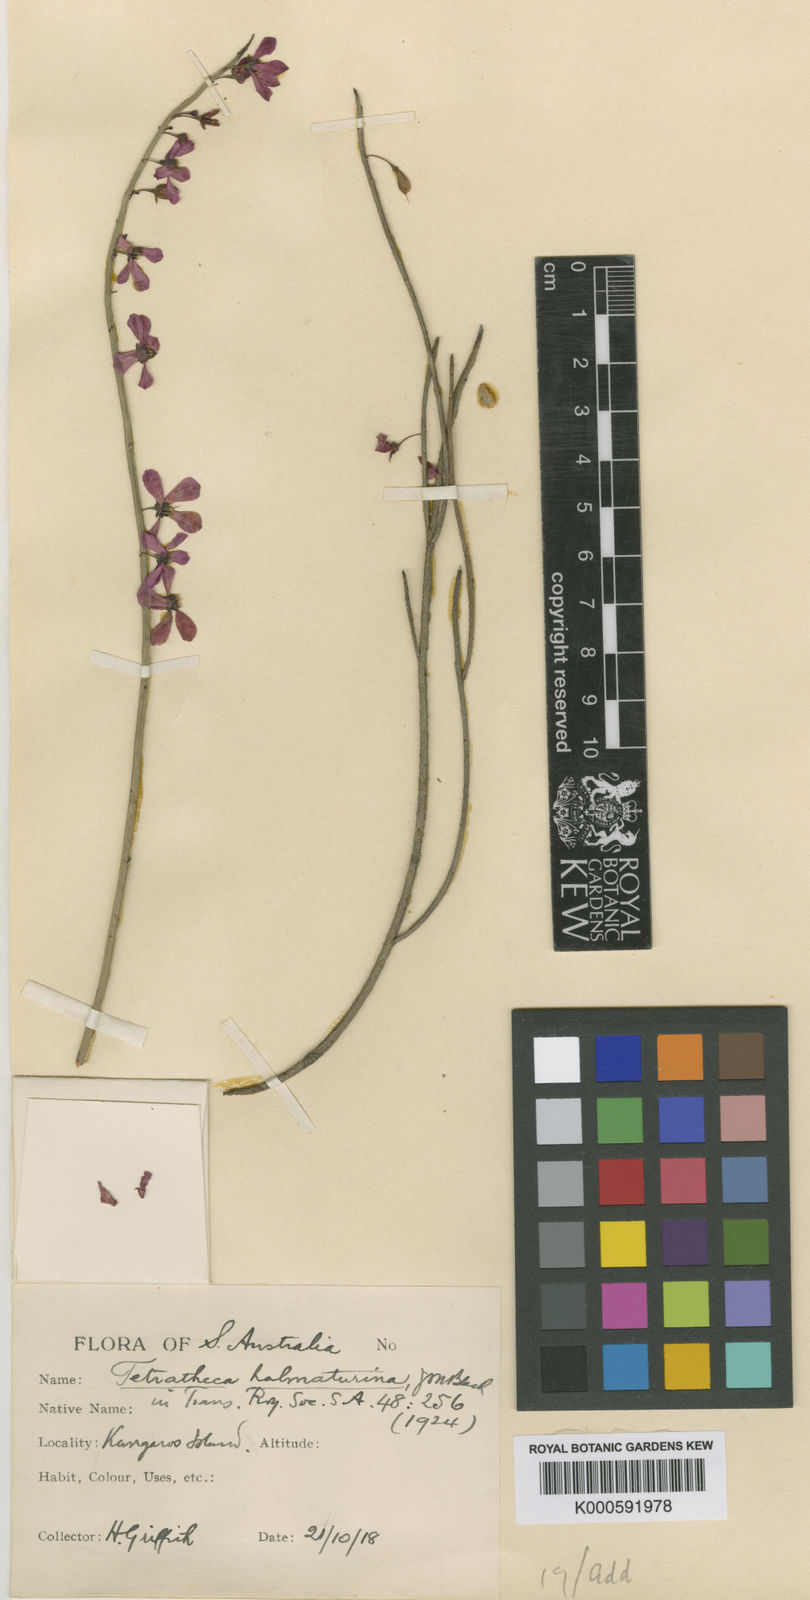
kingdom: Plantae
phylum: Tracheophyta
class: Magnoliopsida
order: Oxalidales
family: Elaeocarpaceae
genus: Tetratheca
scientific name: Tetratheca halmaturina
